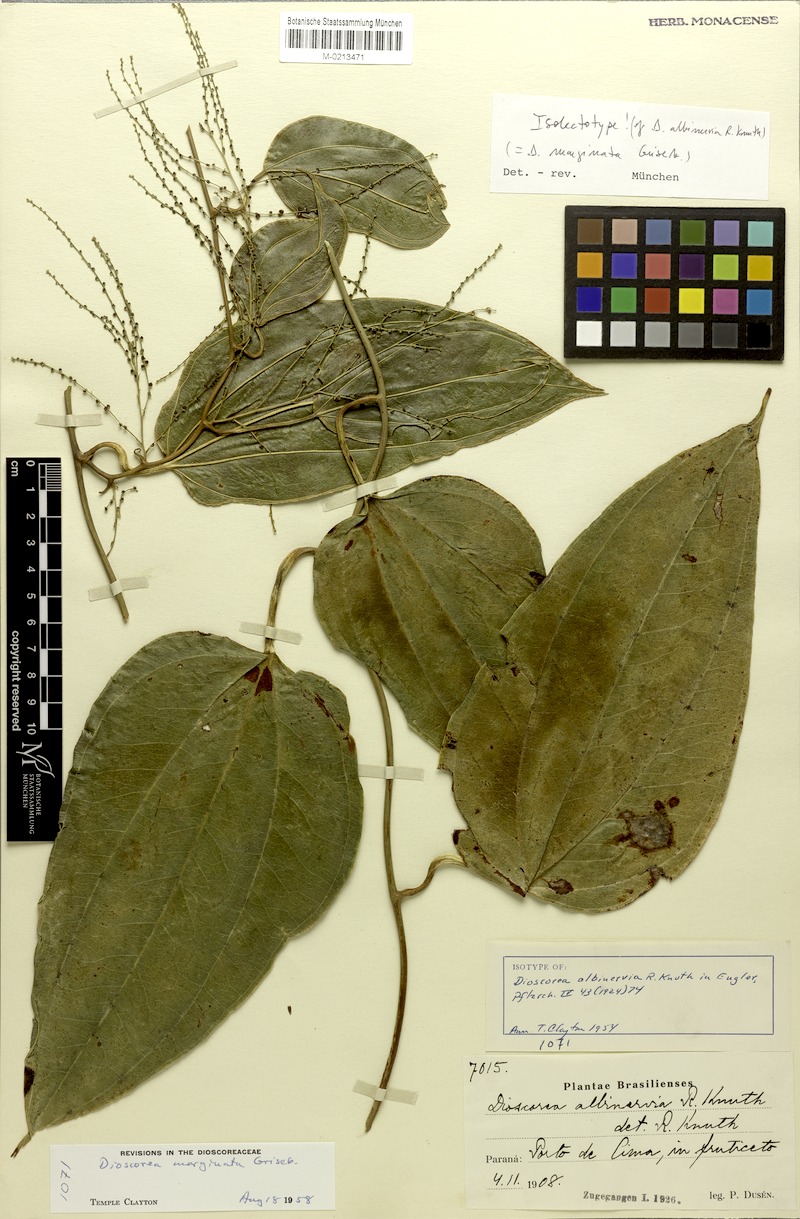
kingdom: Plantae
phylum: Tracheophyta
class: Liliopsida
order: Dioscoreales
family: Dioscoreaceae
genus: Dioscorea
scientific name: Dioscorea marginata
